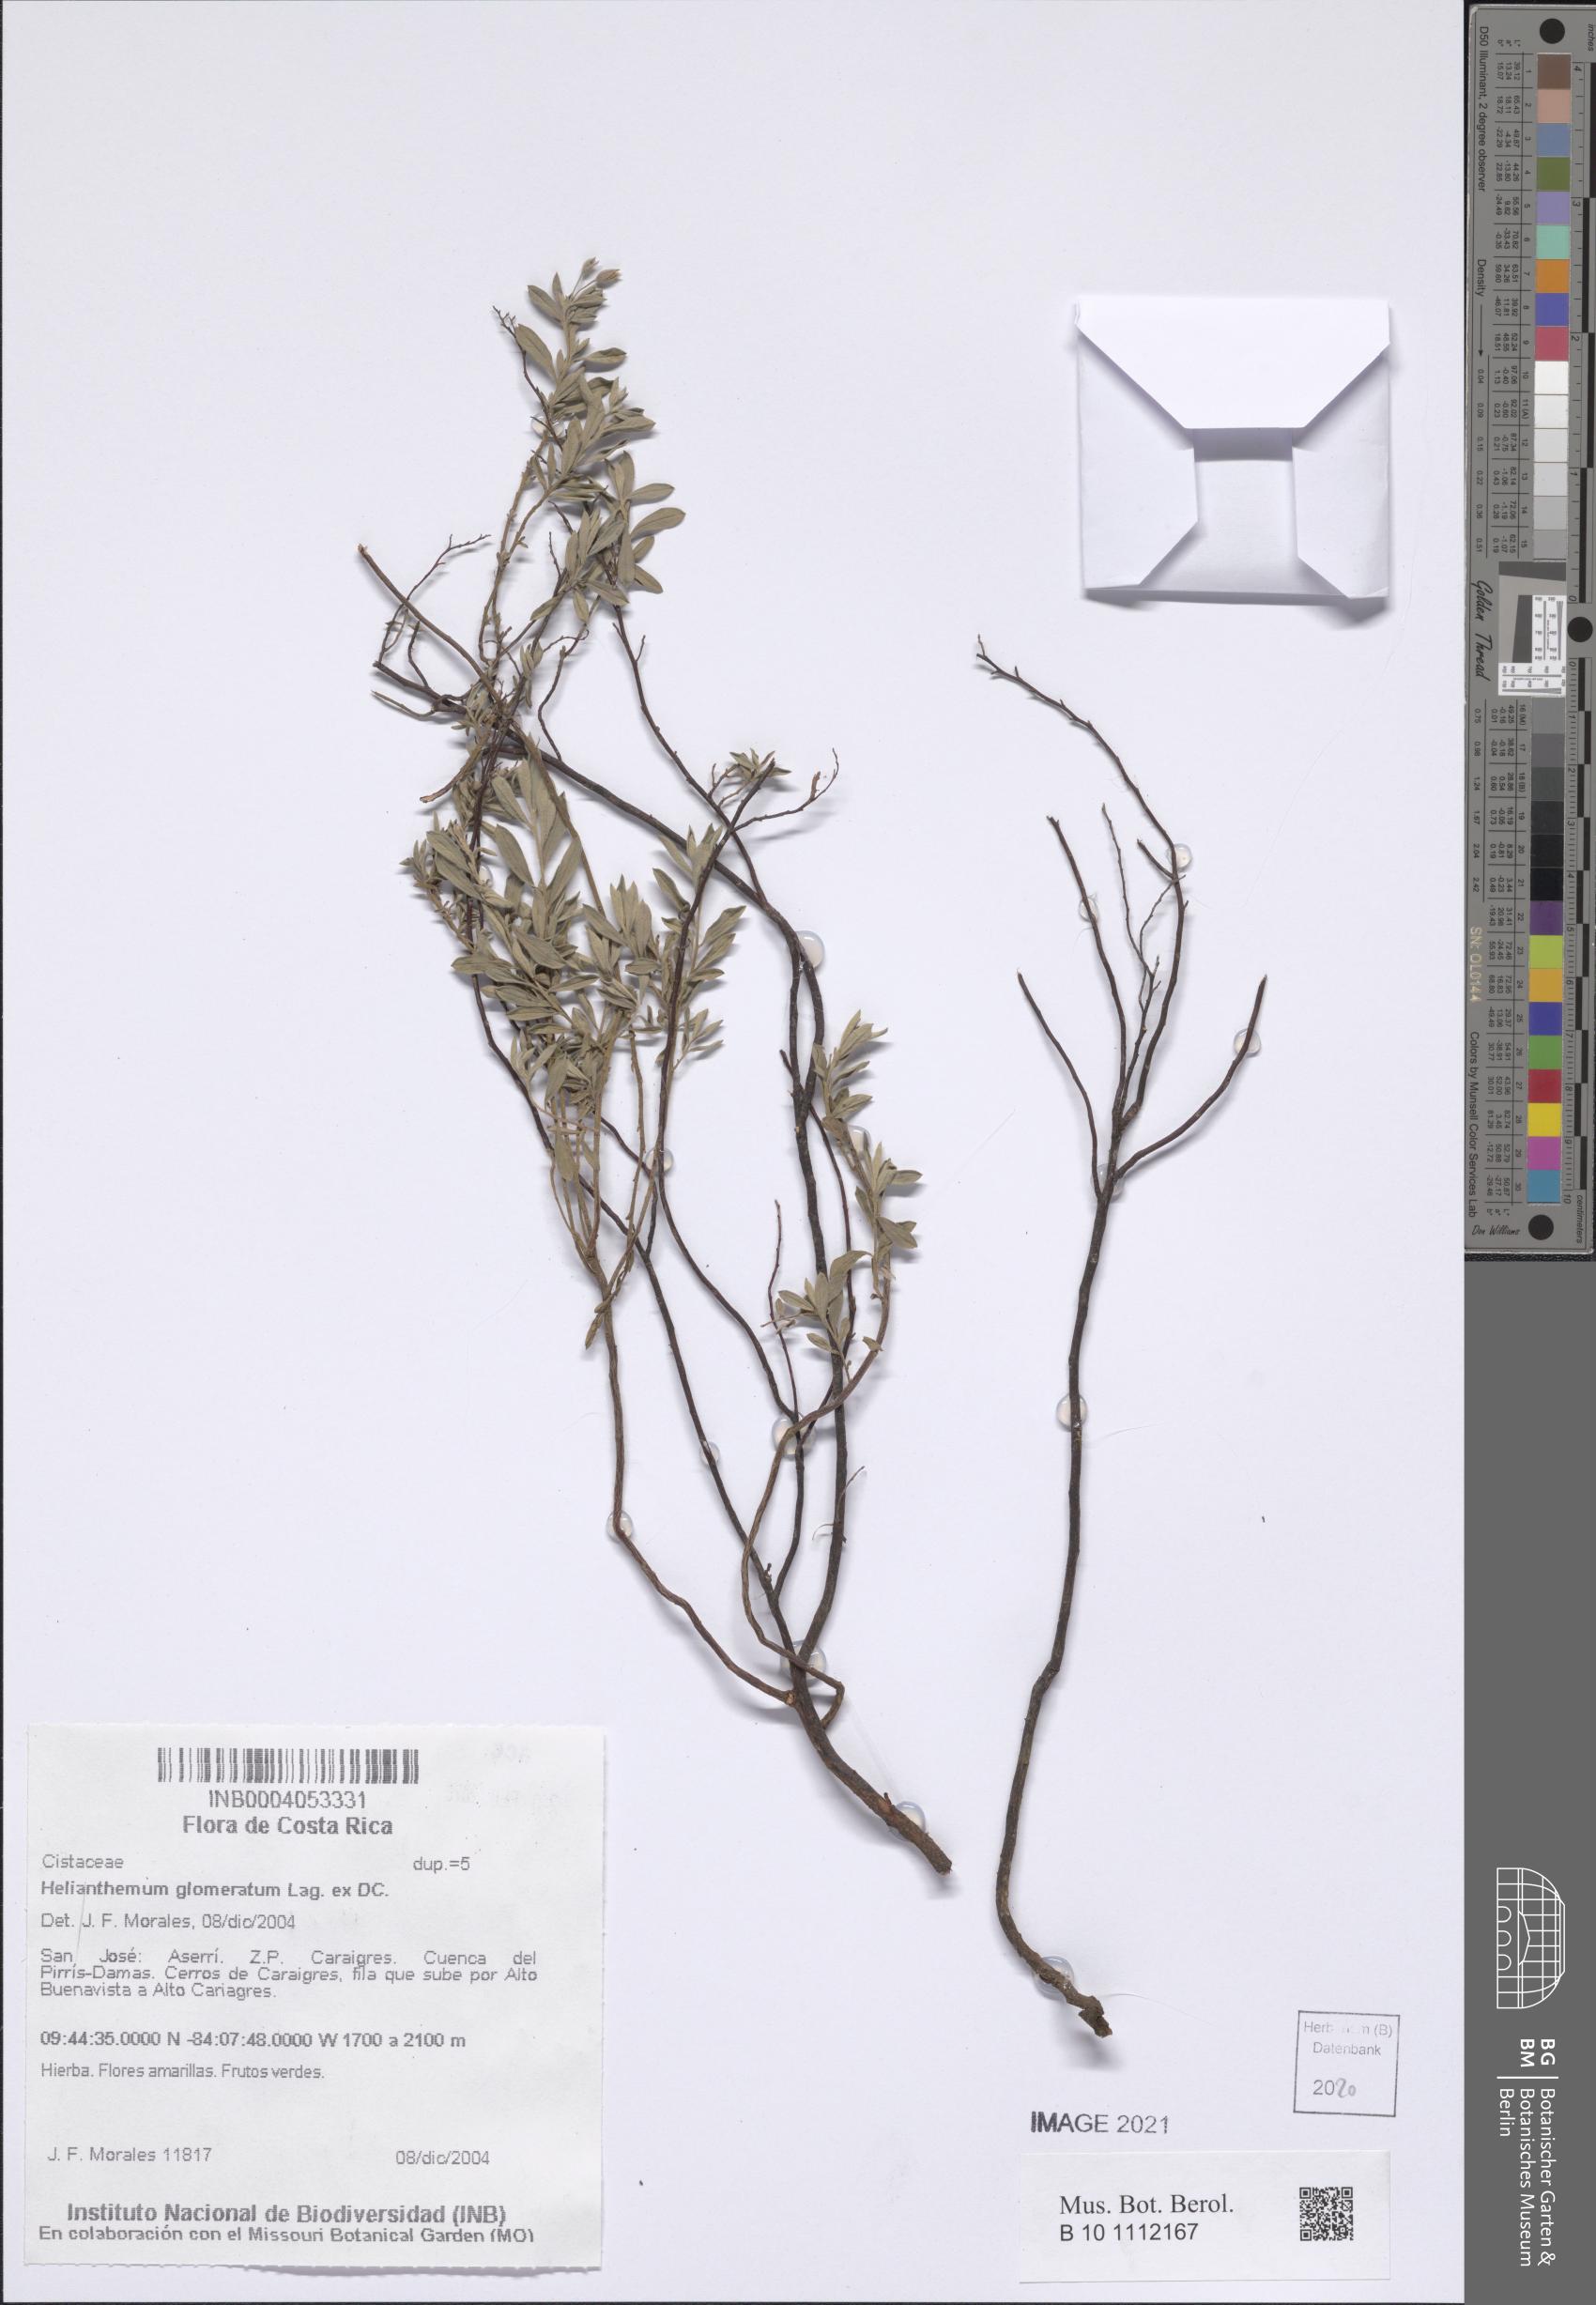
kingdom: Plantae
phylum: Tracheophyta
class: Magnoliopsida
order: Malvales
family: Cistaceae
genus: Crocanthemum
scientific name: Crocanthemum glomeratum
